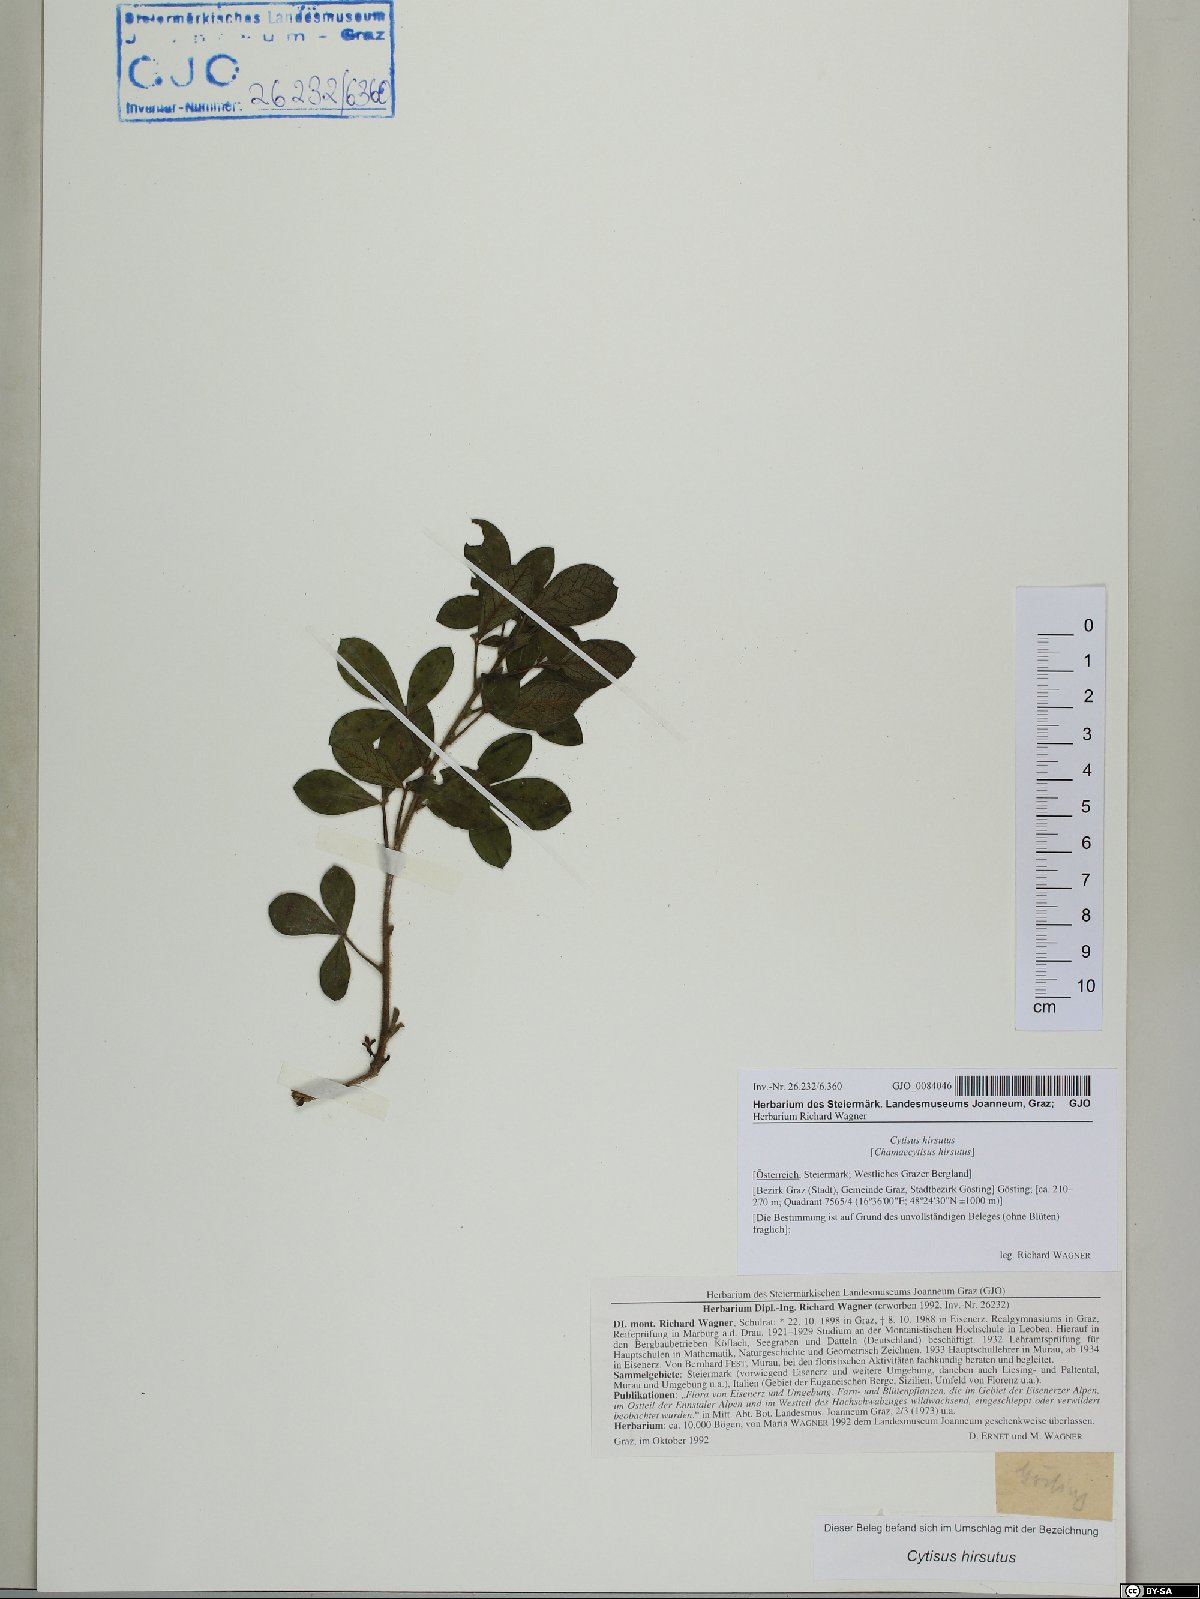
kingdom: Plantae
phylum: Tracheophyta
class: Magnoliopsida
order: Fabales
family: Fabaceae
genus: Chamaecytisus
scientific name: Chamaecytisus hirsutus
